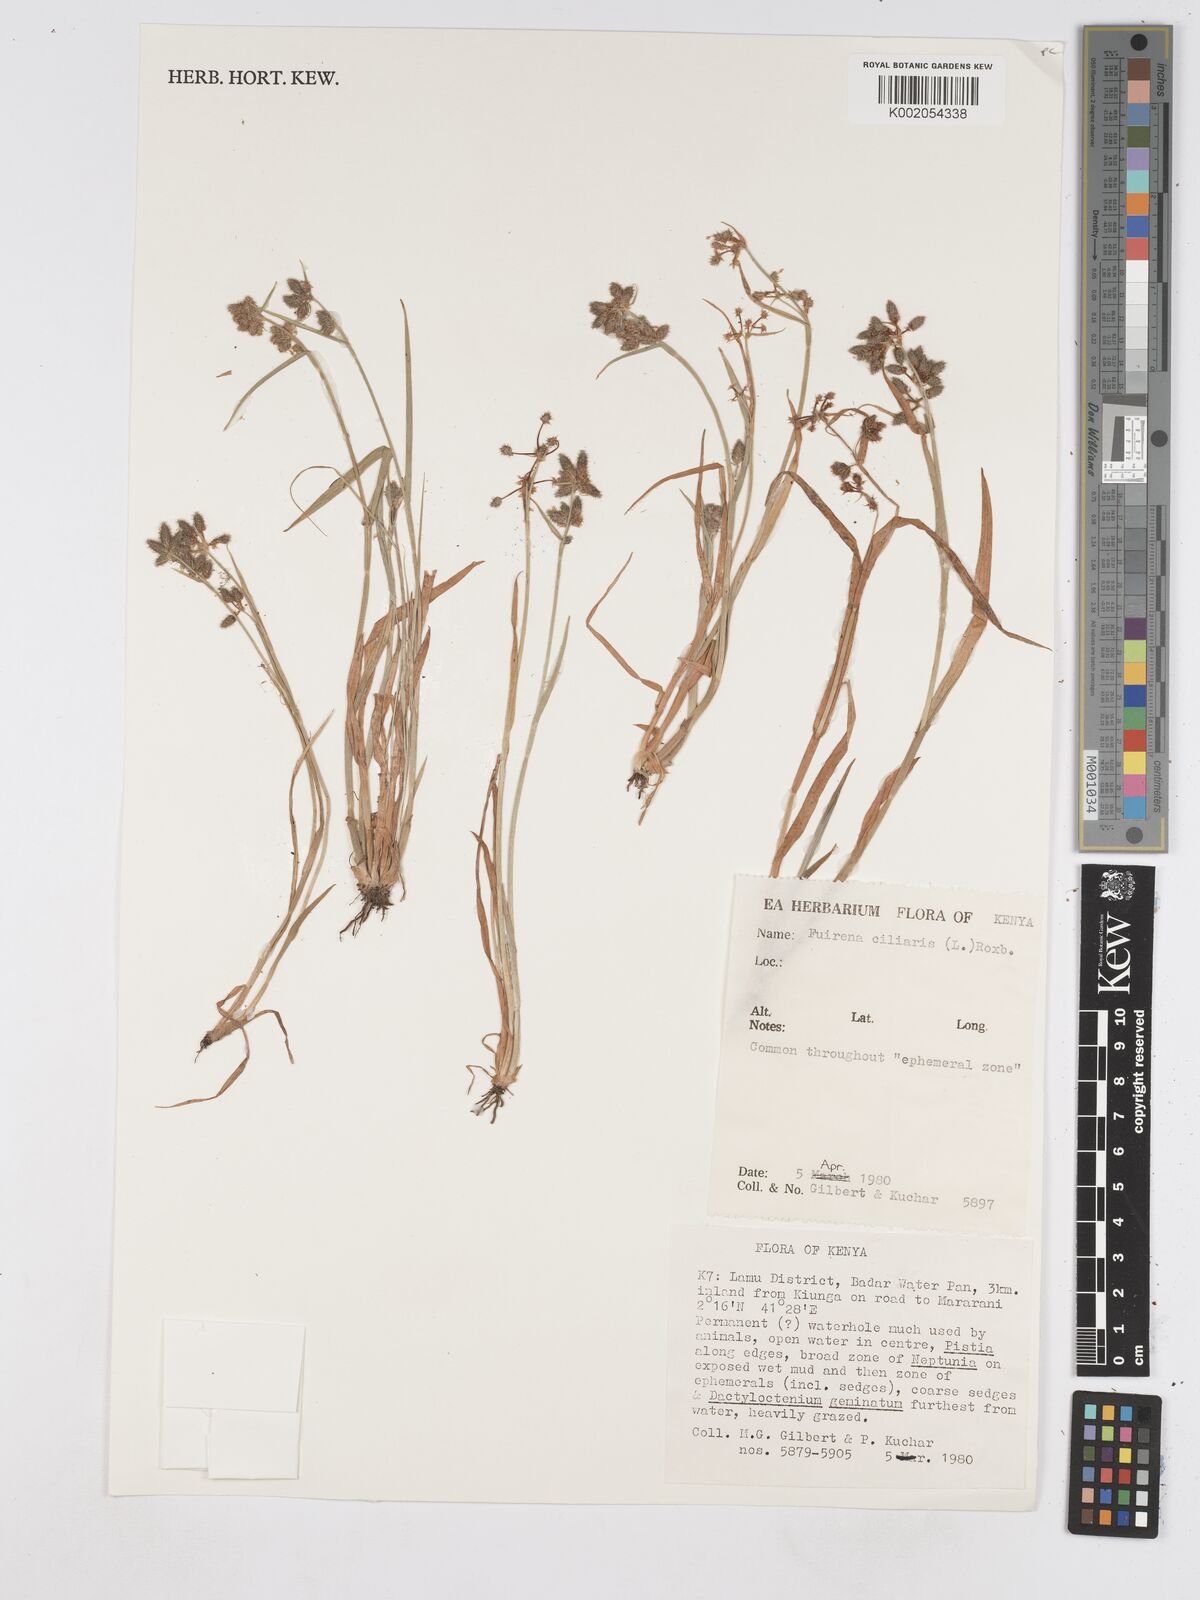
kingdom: Plantae
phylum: Tracheophyta
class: Liliopsida
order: Poales
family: Cyperaceae
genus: Fuirena
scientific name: Fuirena ciliaris
